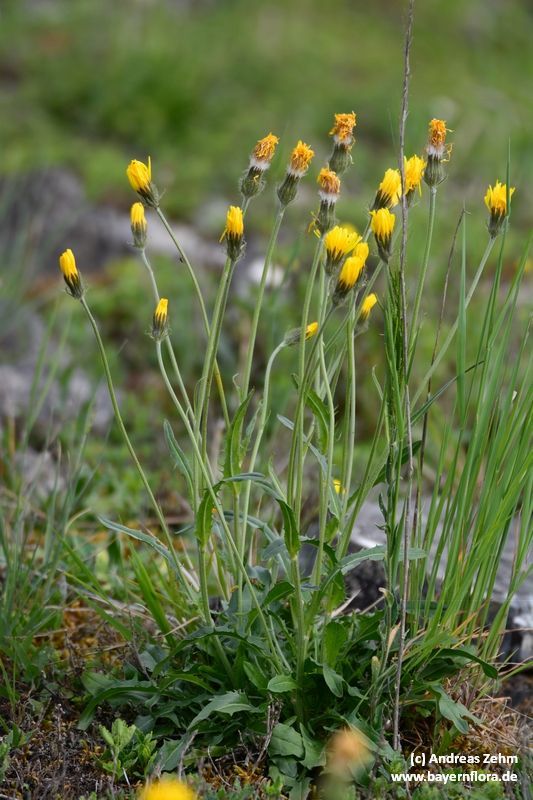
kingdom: Plantae
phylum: Tracheophyta
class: Magnoliopsida
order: Asterales
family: Asteraceae
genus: Crepis
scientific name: Crepis alpestris
